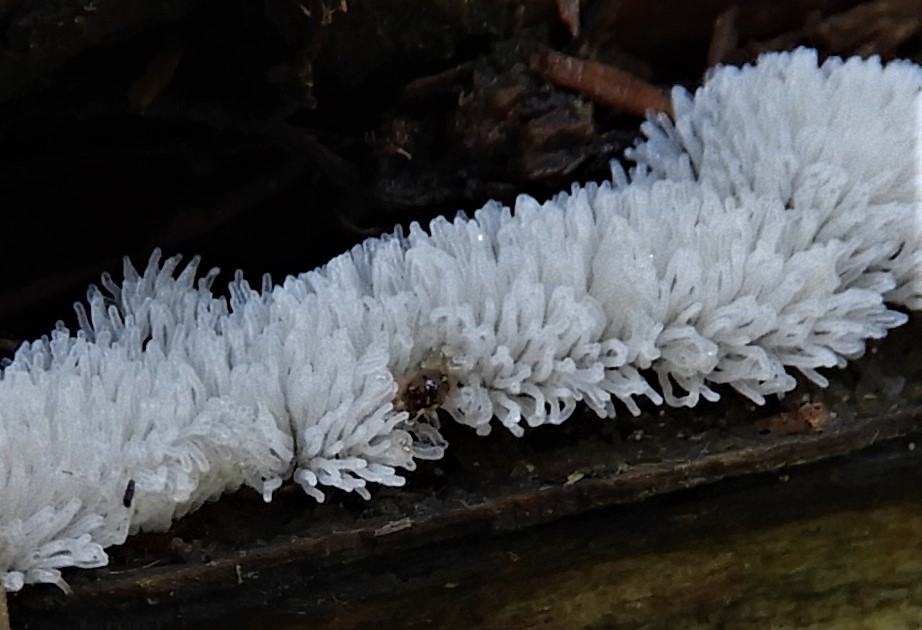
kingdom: Protozoa
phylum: Mycetozoa
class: Protosteliomycetes
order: Ceratiomyxales
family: Ceratiomyxaceae
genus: Ceratiomyxa
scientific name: Ceratiomyxa fruticulosa
